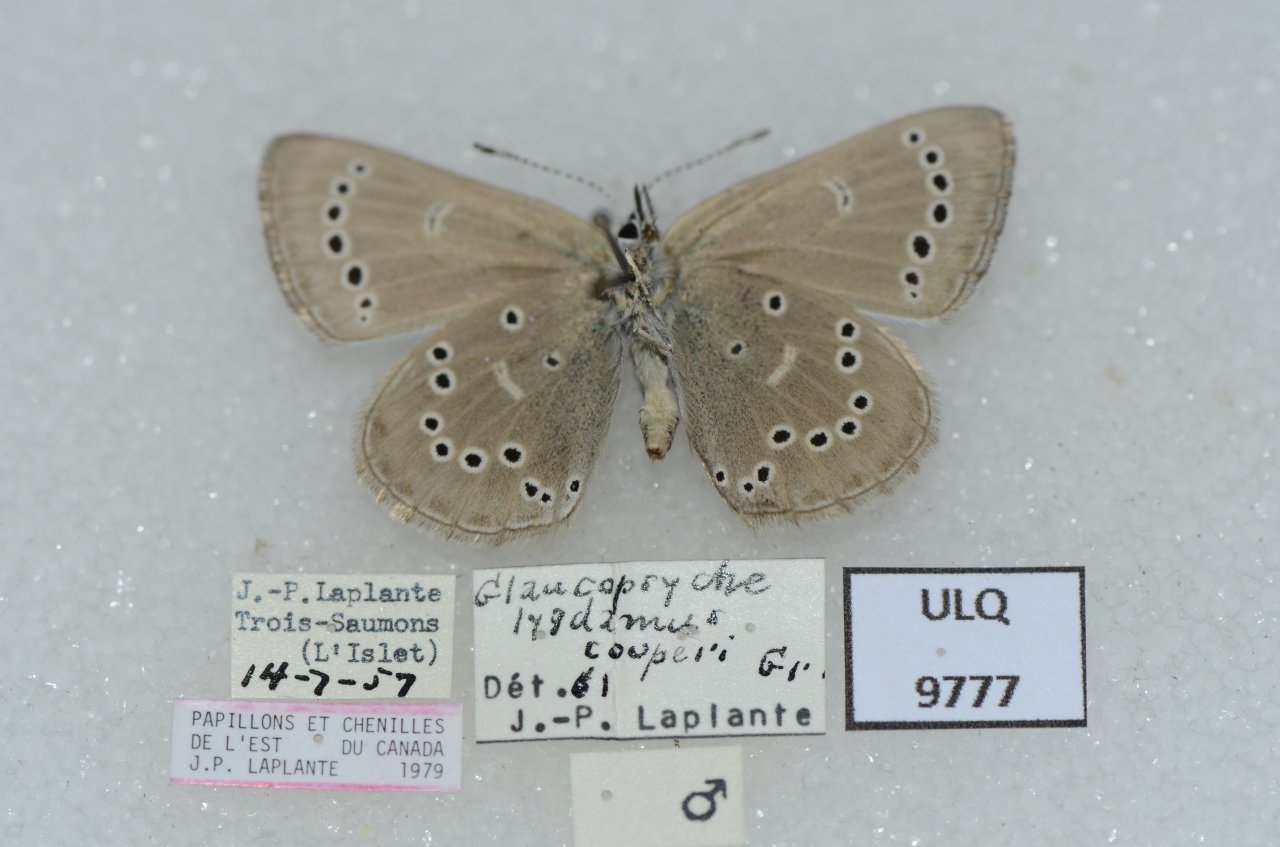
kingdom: Animalia
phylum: Arthropoda
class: Insecta
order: Lepidoptera
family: Lycaenidae
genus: Glaucopsyche
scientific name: Glaucopsyche lygdamus
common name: Silvery Blue
